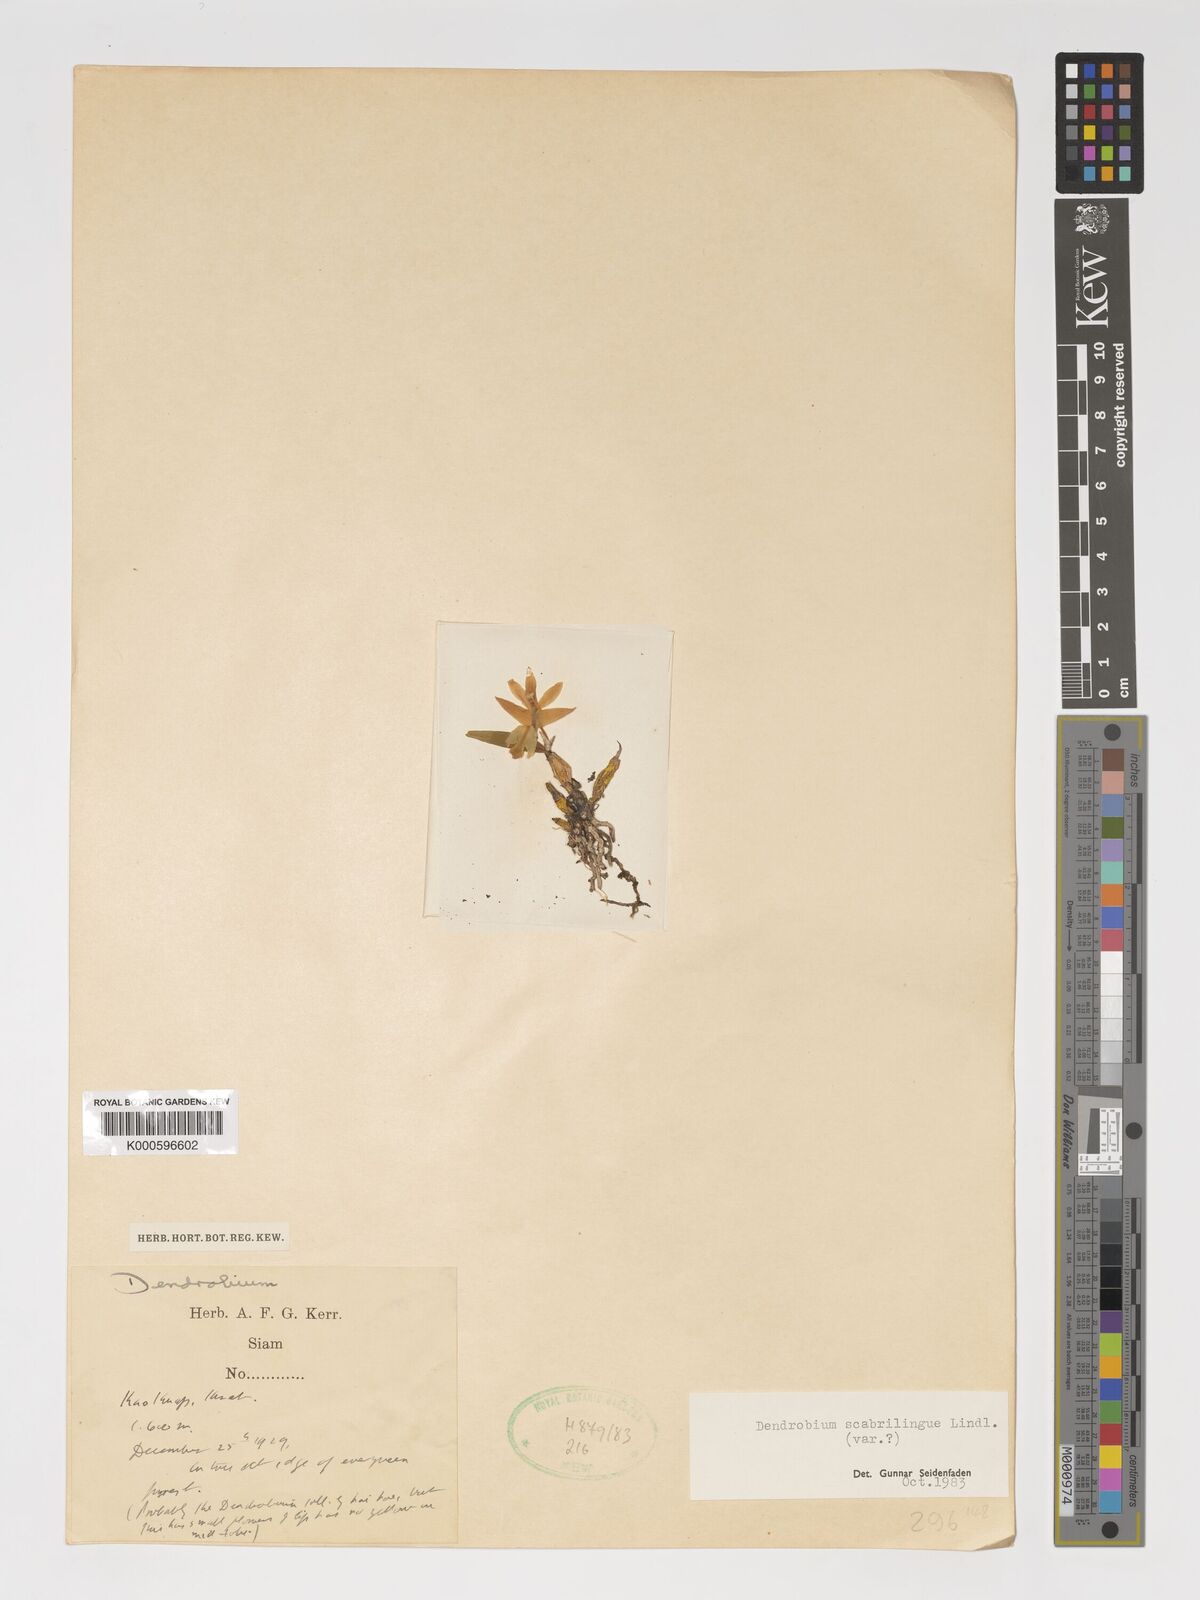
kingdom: Plantae
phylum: Tracheophyta
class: Liliopsida
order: Asparagales
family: Orchidaceae
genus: Dendrobium
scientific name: Dendrobium scabrilingue
